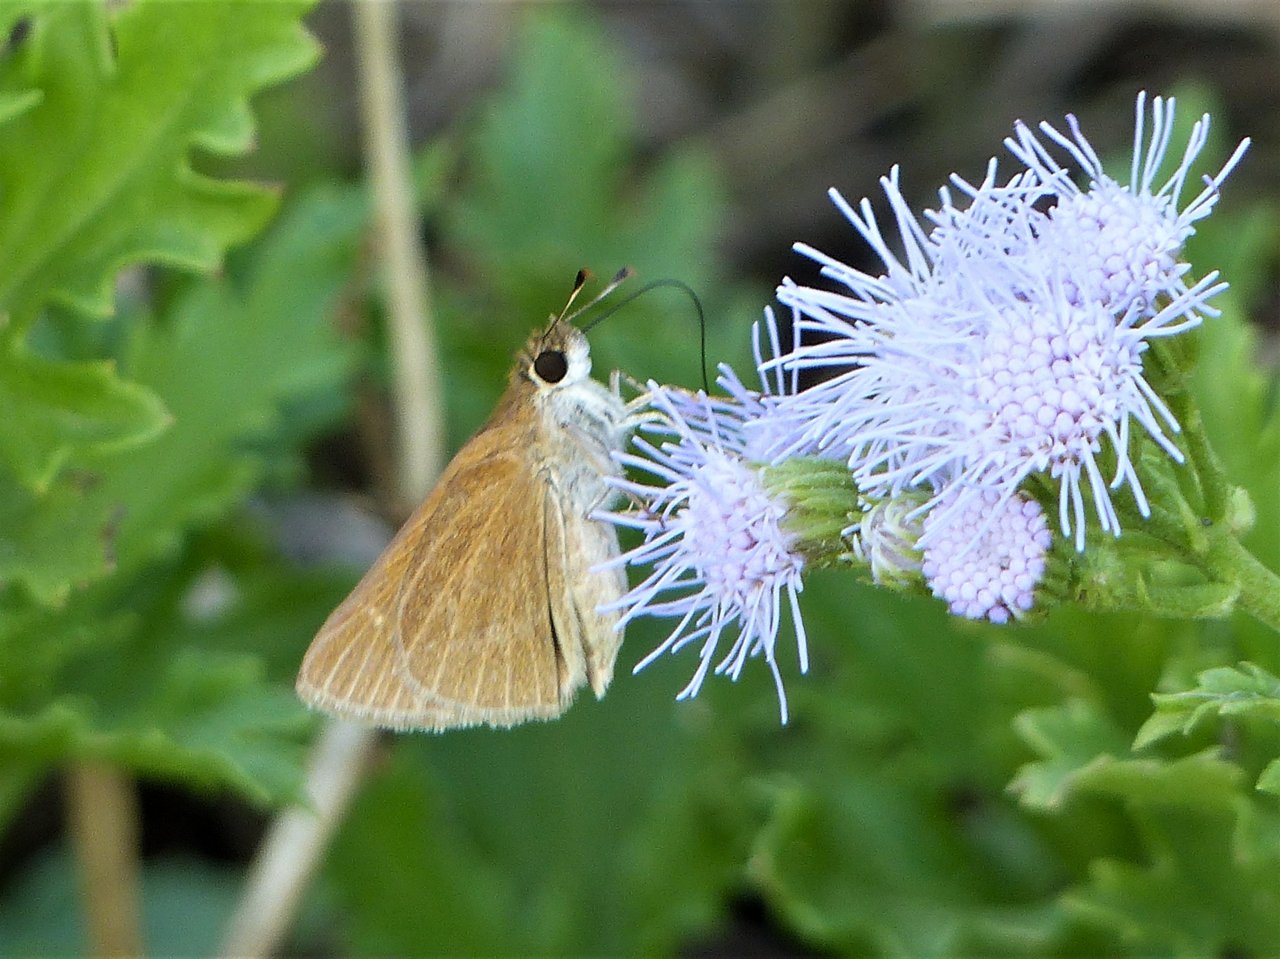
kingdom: Animalia
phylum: Arthropoda
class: Insecta
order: Lepidoptera
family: Hesperiidae
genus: Nastra
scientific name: Nastra julia
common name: Julia's Skipper
